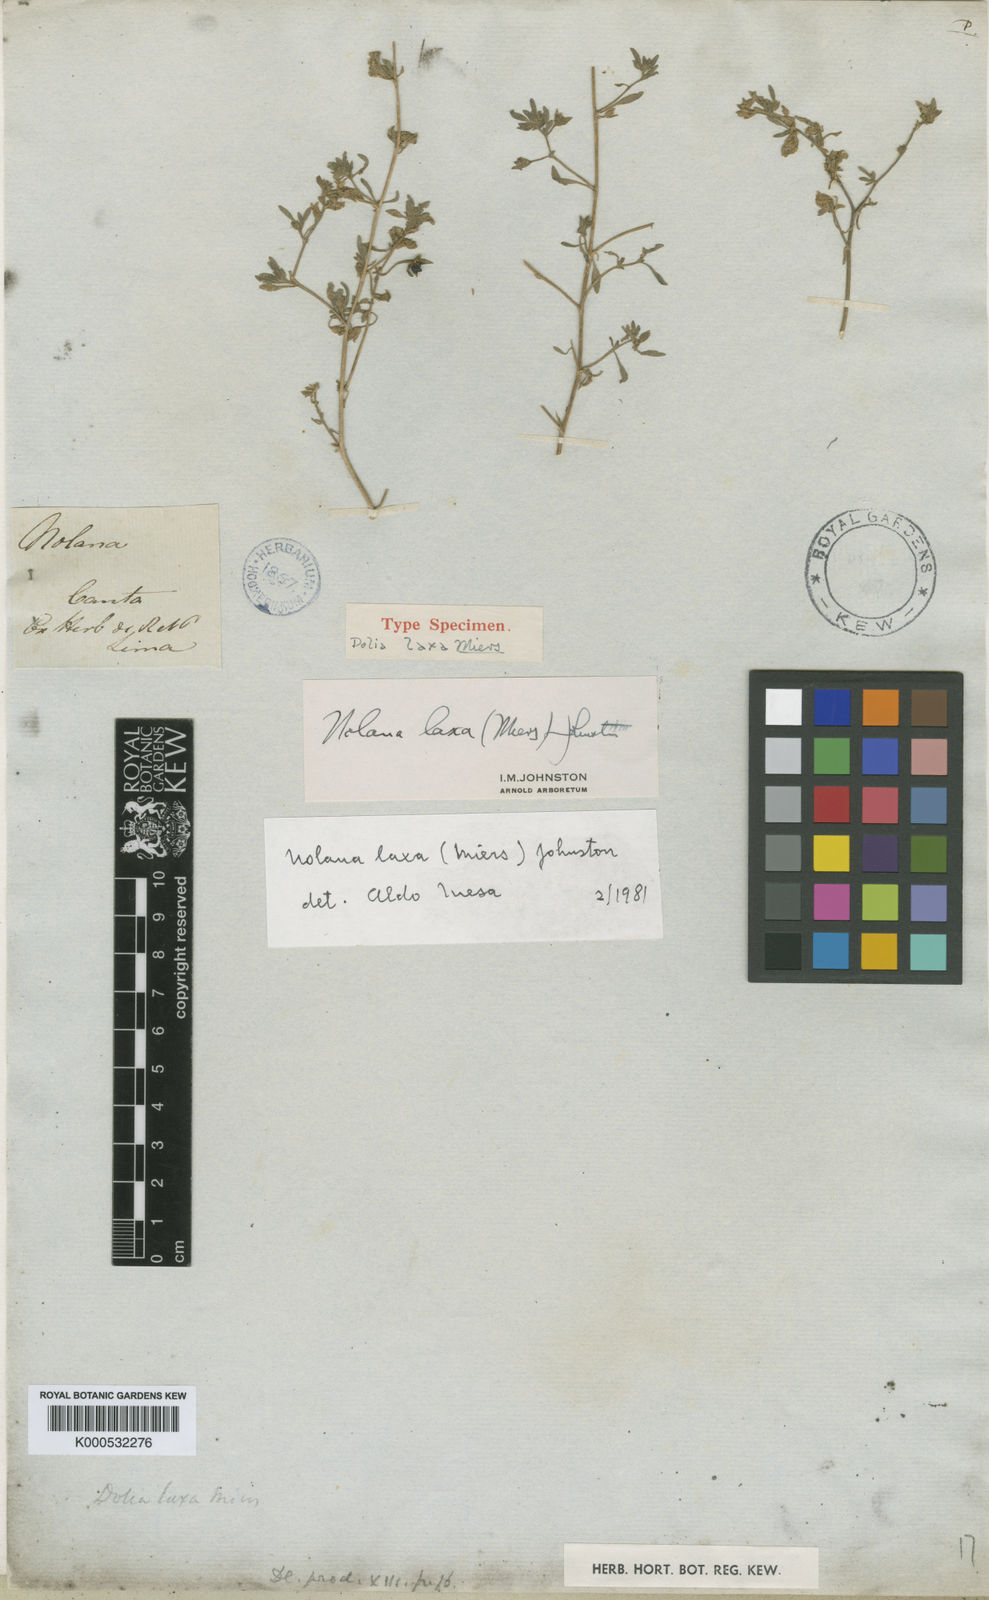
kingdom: Plantae
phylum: Tracheophyta
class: Magnoliopsida
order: Solanales
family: Solanaceae
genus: Nolana
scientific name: Nolana laxa
